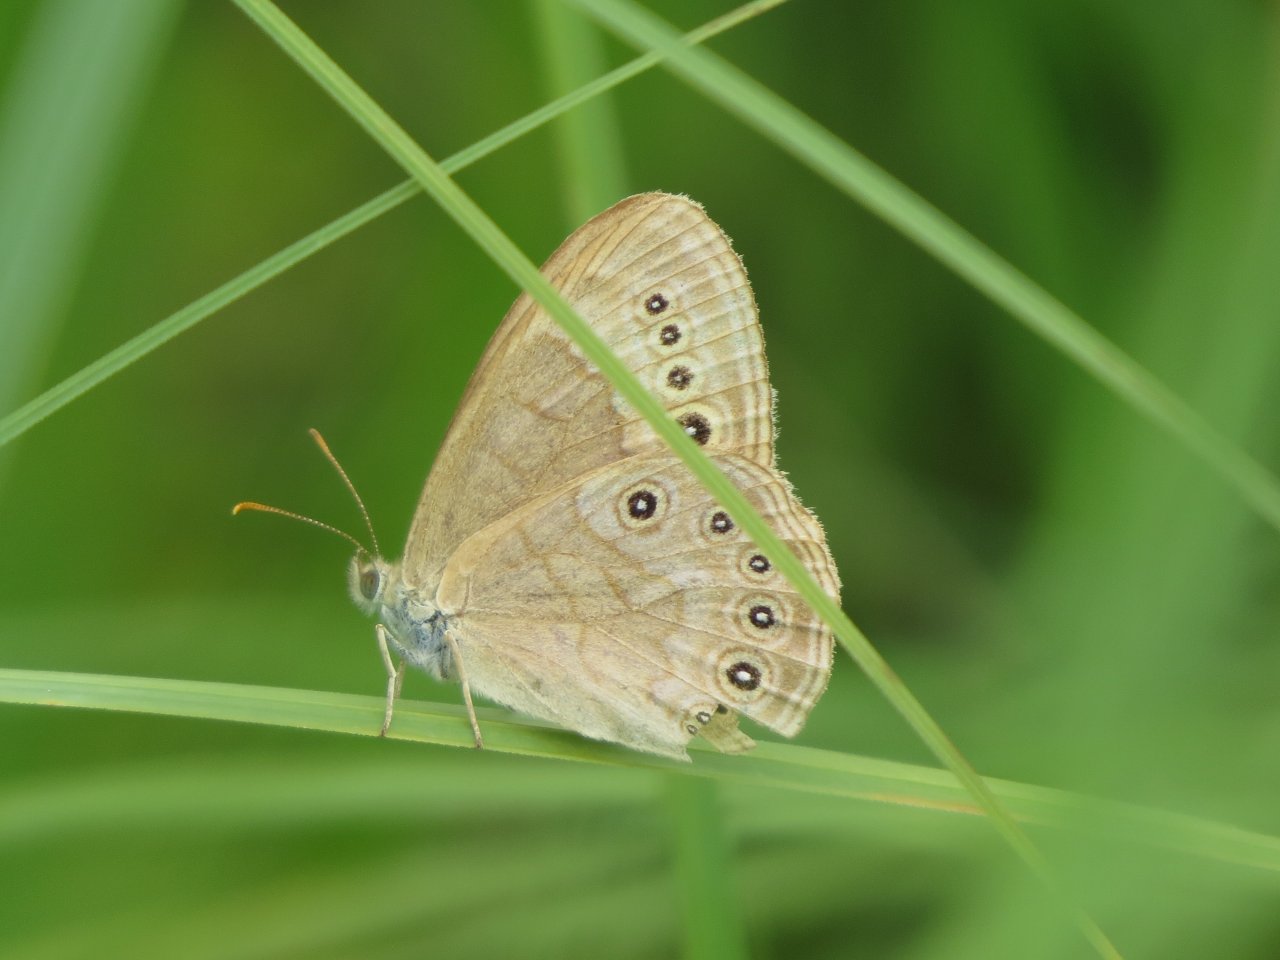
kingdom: Animalia
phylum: Arthropoda
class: Insecta
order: Lepidoptera
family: Nymphalidae
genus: Lethe
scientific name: Lethe eurydice
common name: Eyed Brown
